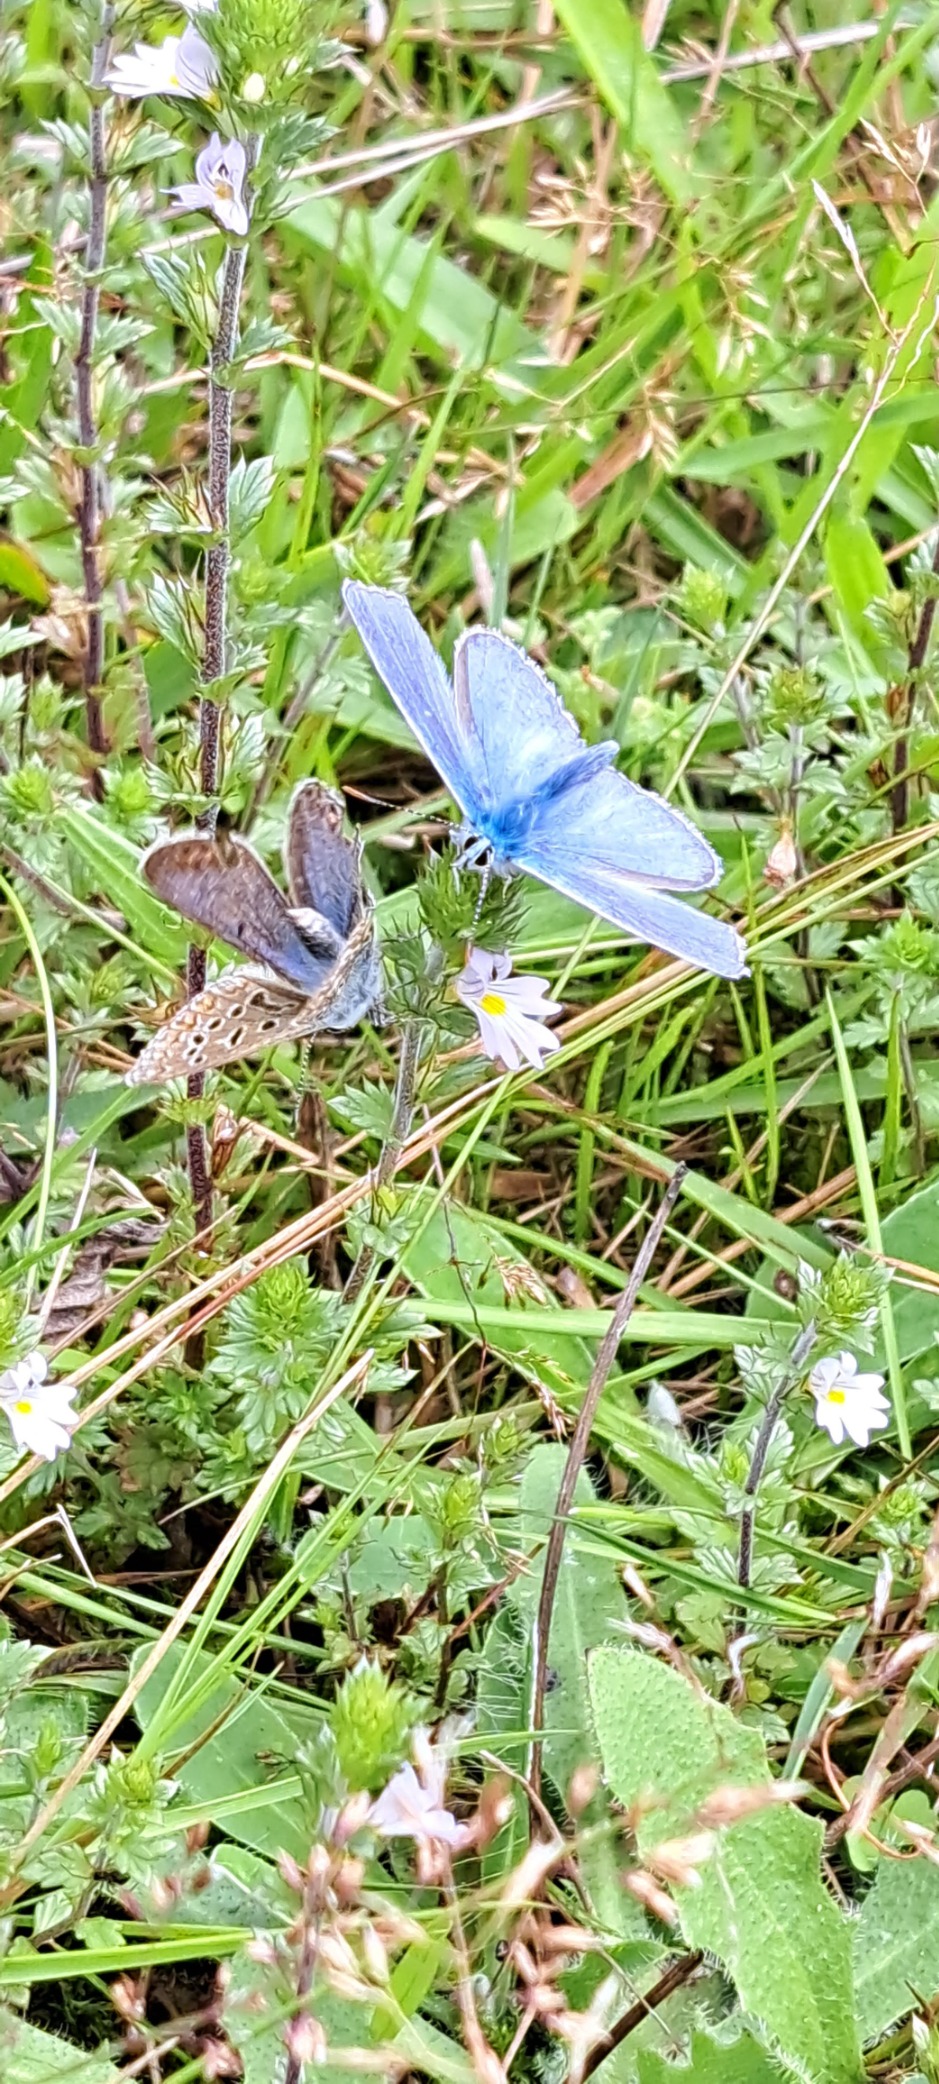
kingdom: Animalia
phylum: Arthropoda
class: Insecta
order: Lepidoptera
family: Lycaenidae
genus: Polyommatus
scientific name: Polyommatus icarus
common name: Almindelig blåfugl
